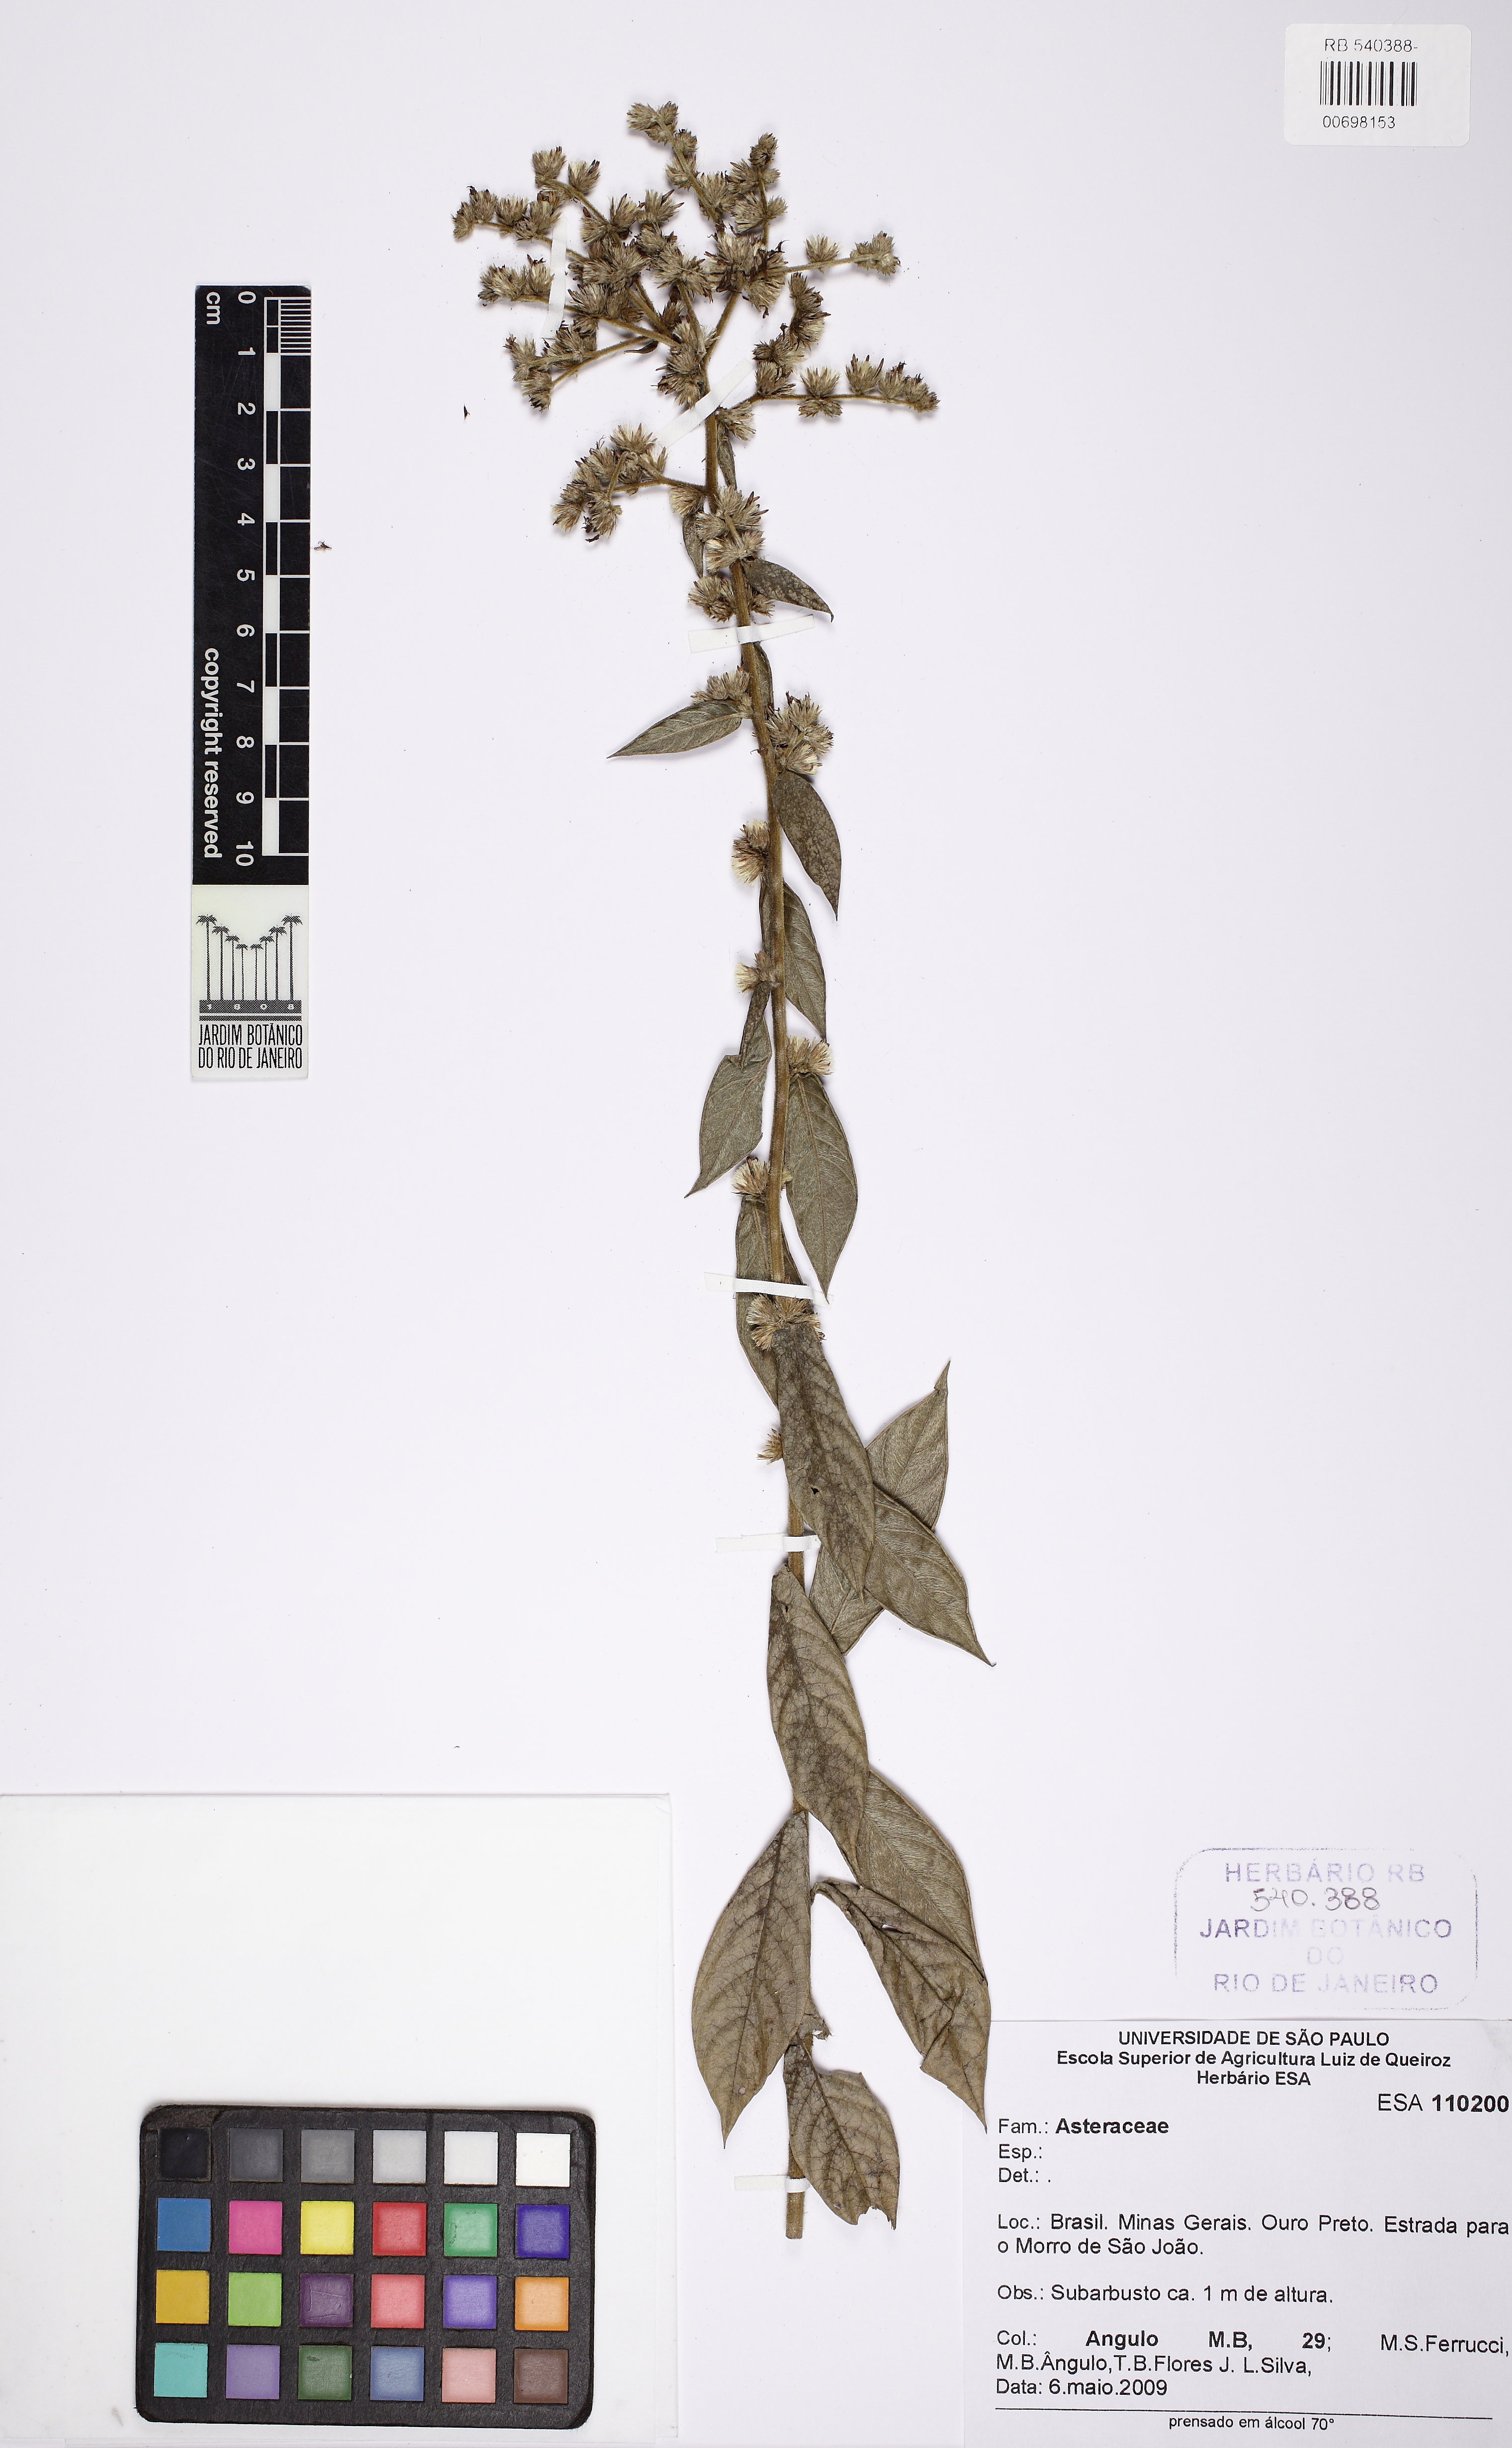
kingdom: Plantae
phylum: Tracheophyta
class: Magnoliopsida
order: Asterales
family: Asteraceae
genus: Lepidaploa
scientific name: Lepidaploa argyrotricha
